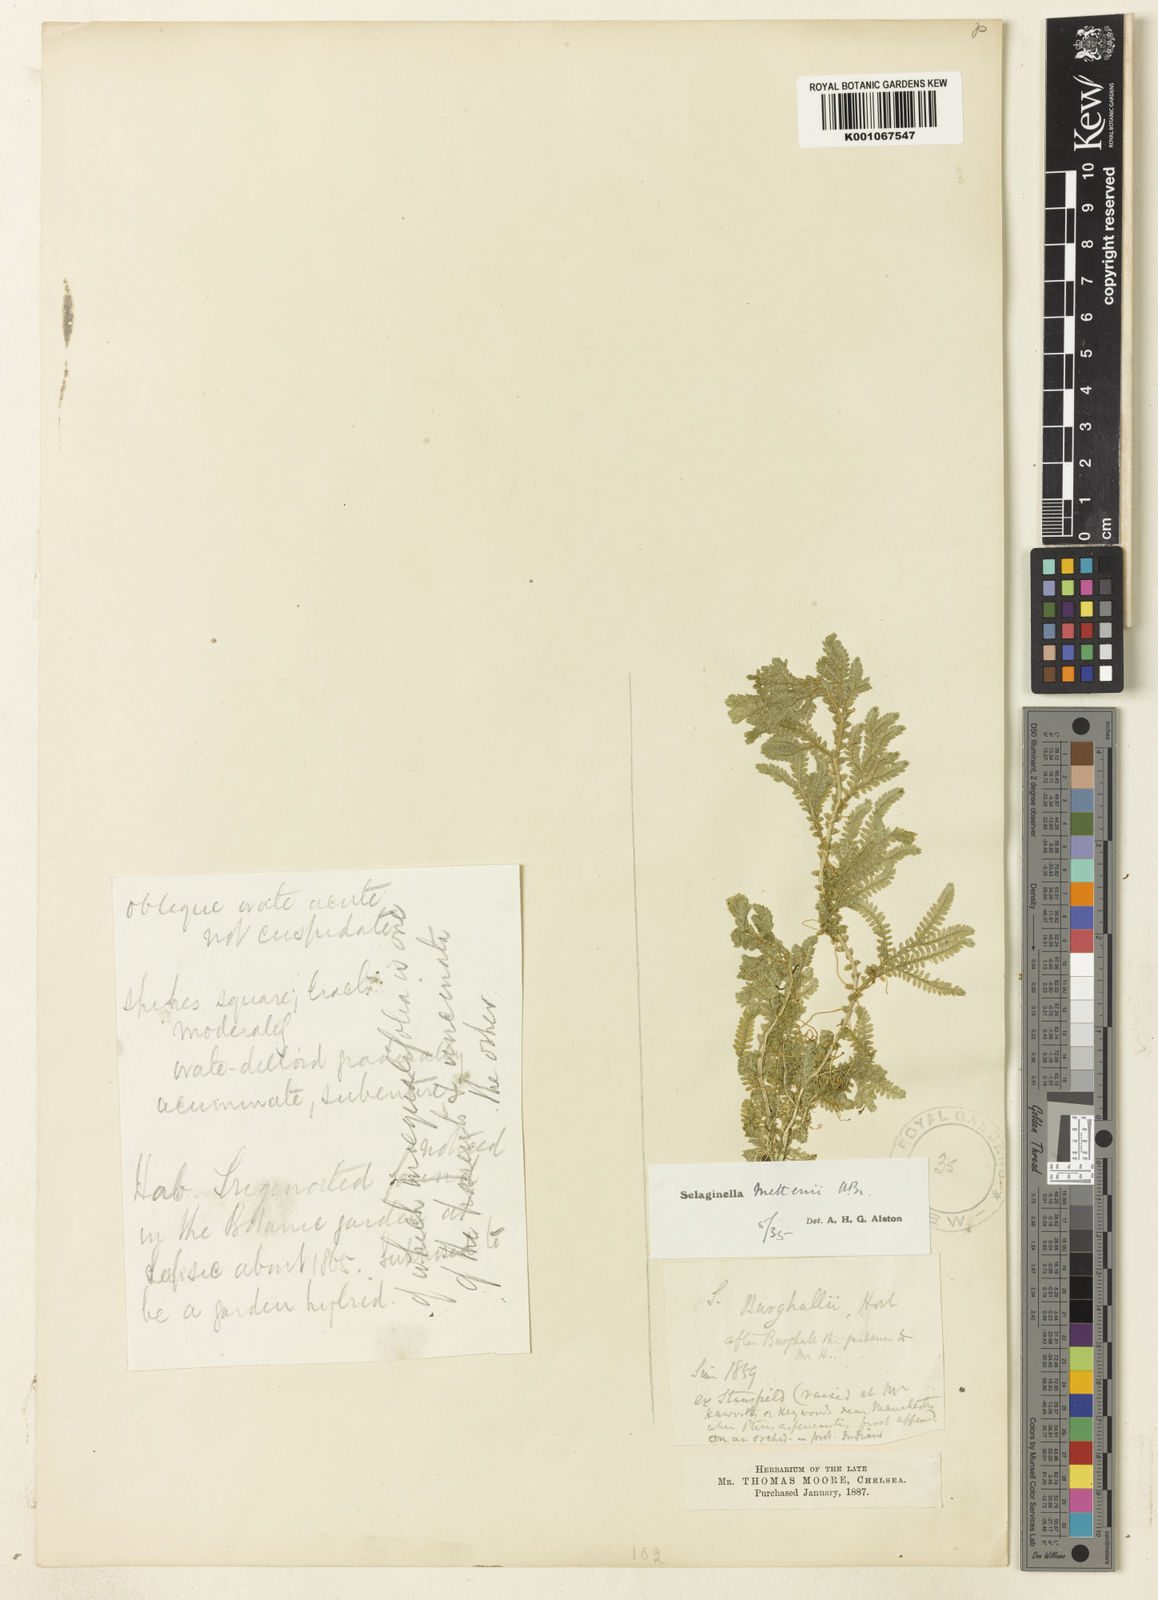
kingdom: Plantae
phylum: Tracheophyta
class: Lycopodiopsida
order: Selaginellales
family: Selaginellaceae
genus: Selaginella
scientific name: Selaginella semicordata
